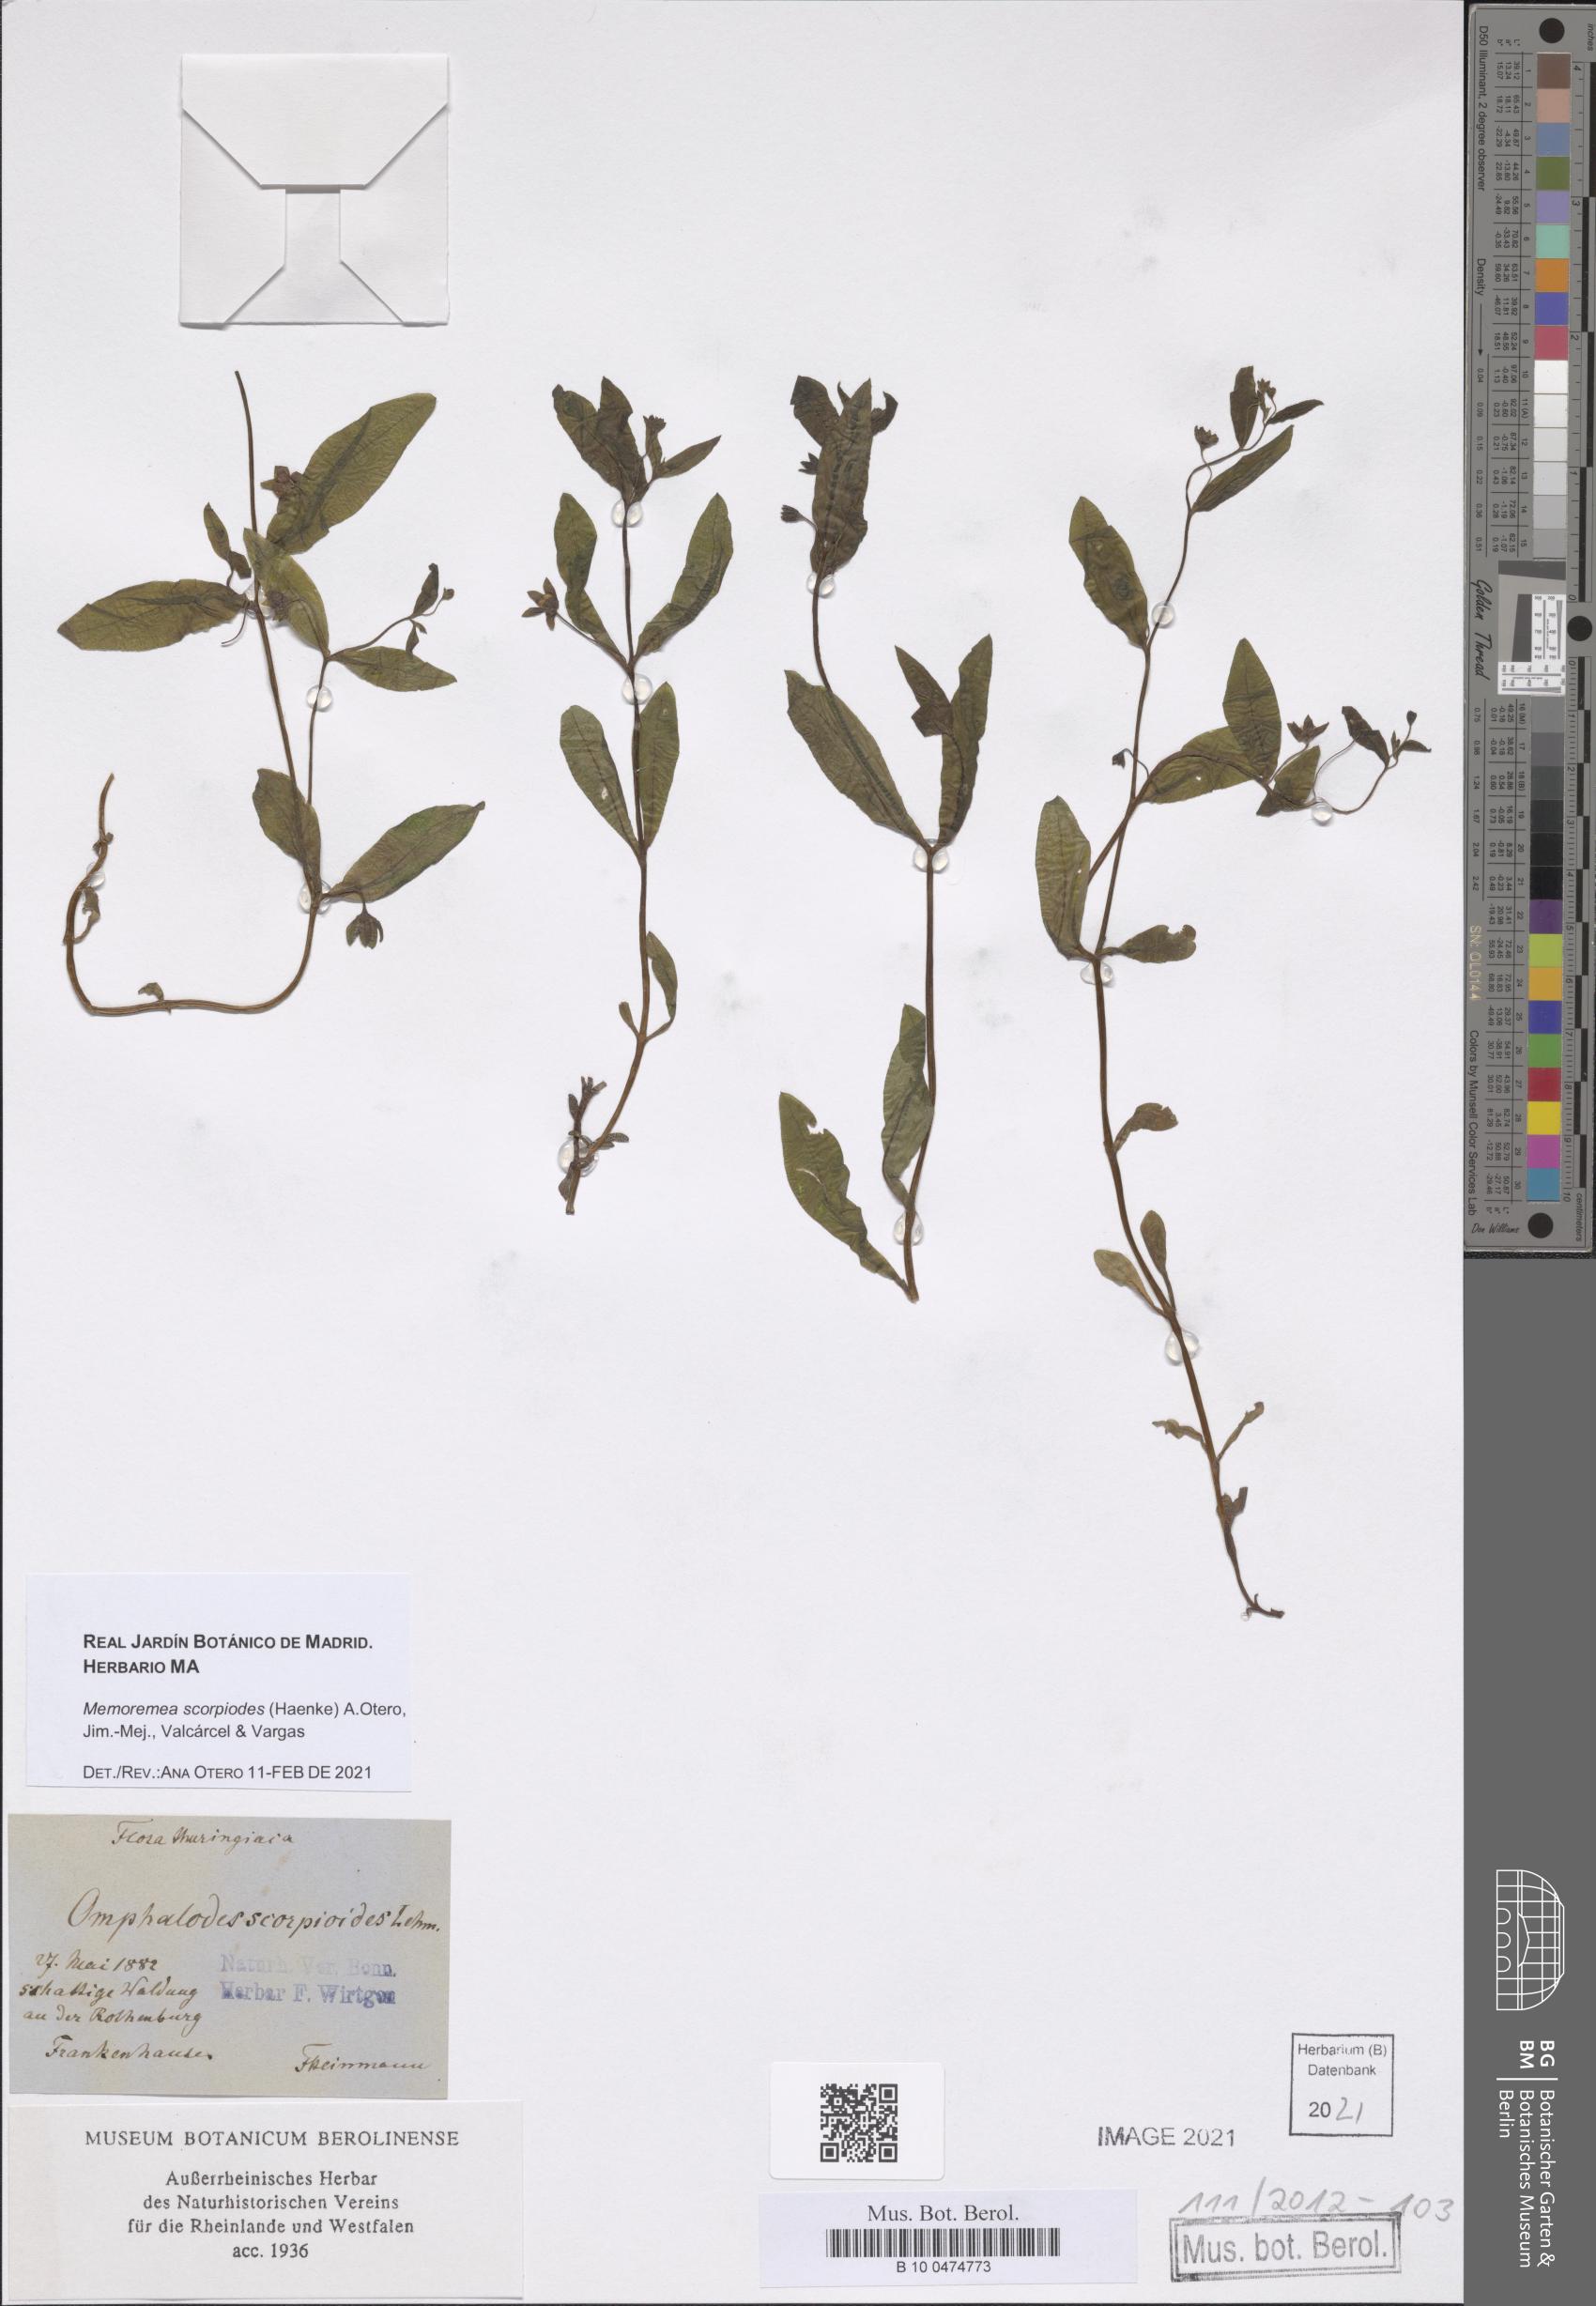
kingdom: Plantae
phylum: Tracheophyta
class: Magnoliopsida
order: Boraginales
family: Boraginaceae
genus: Memoremea
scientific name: Memoremea scorpioides
